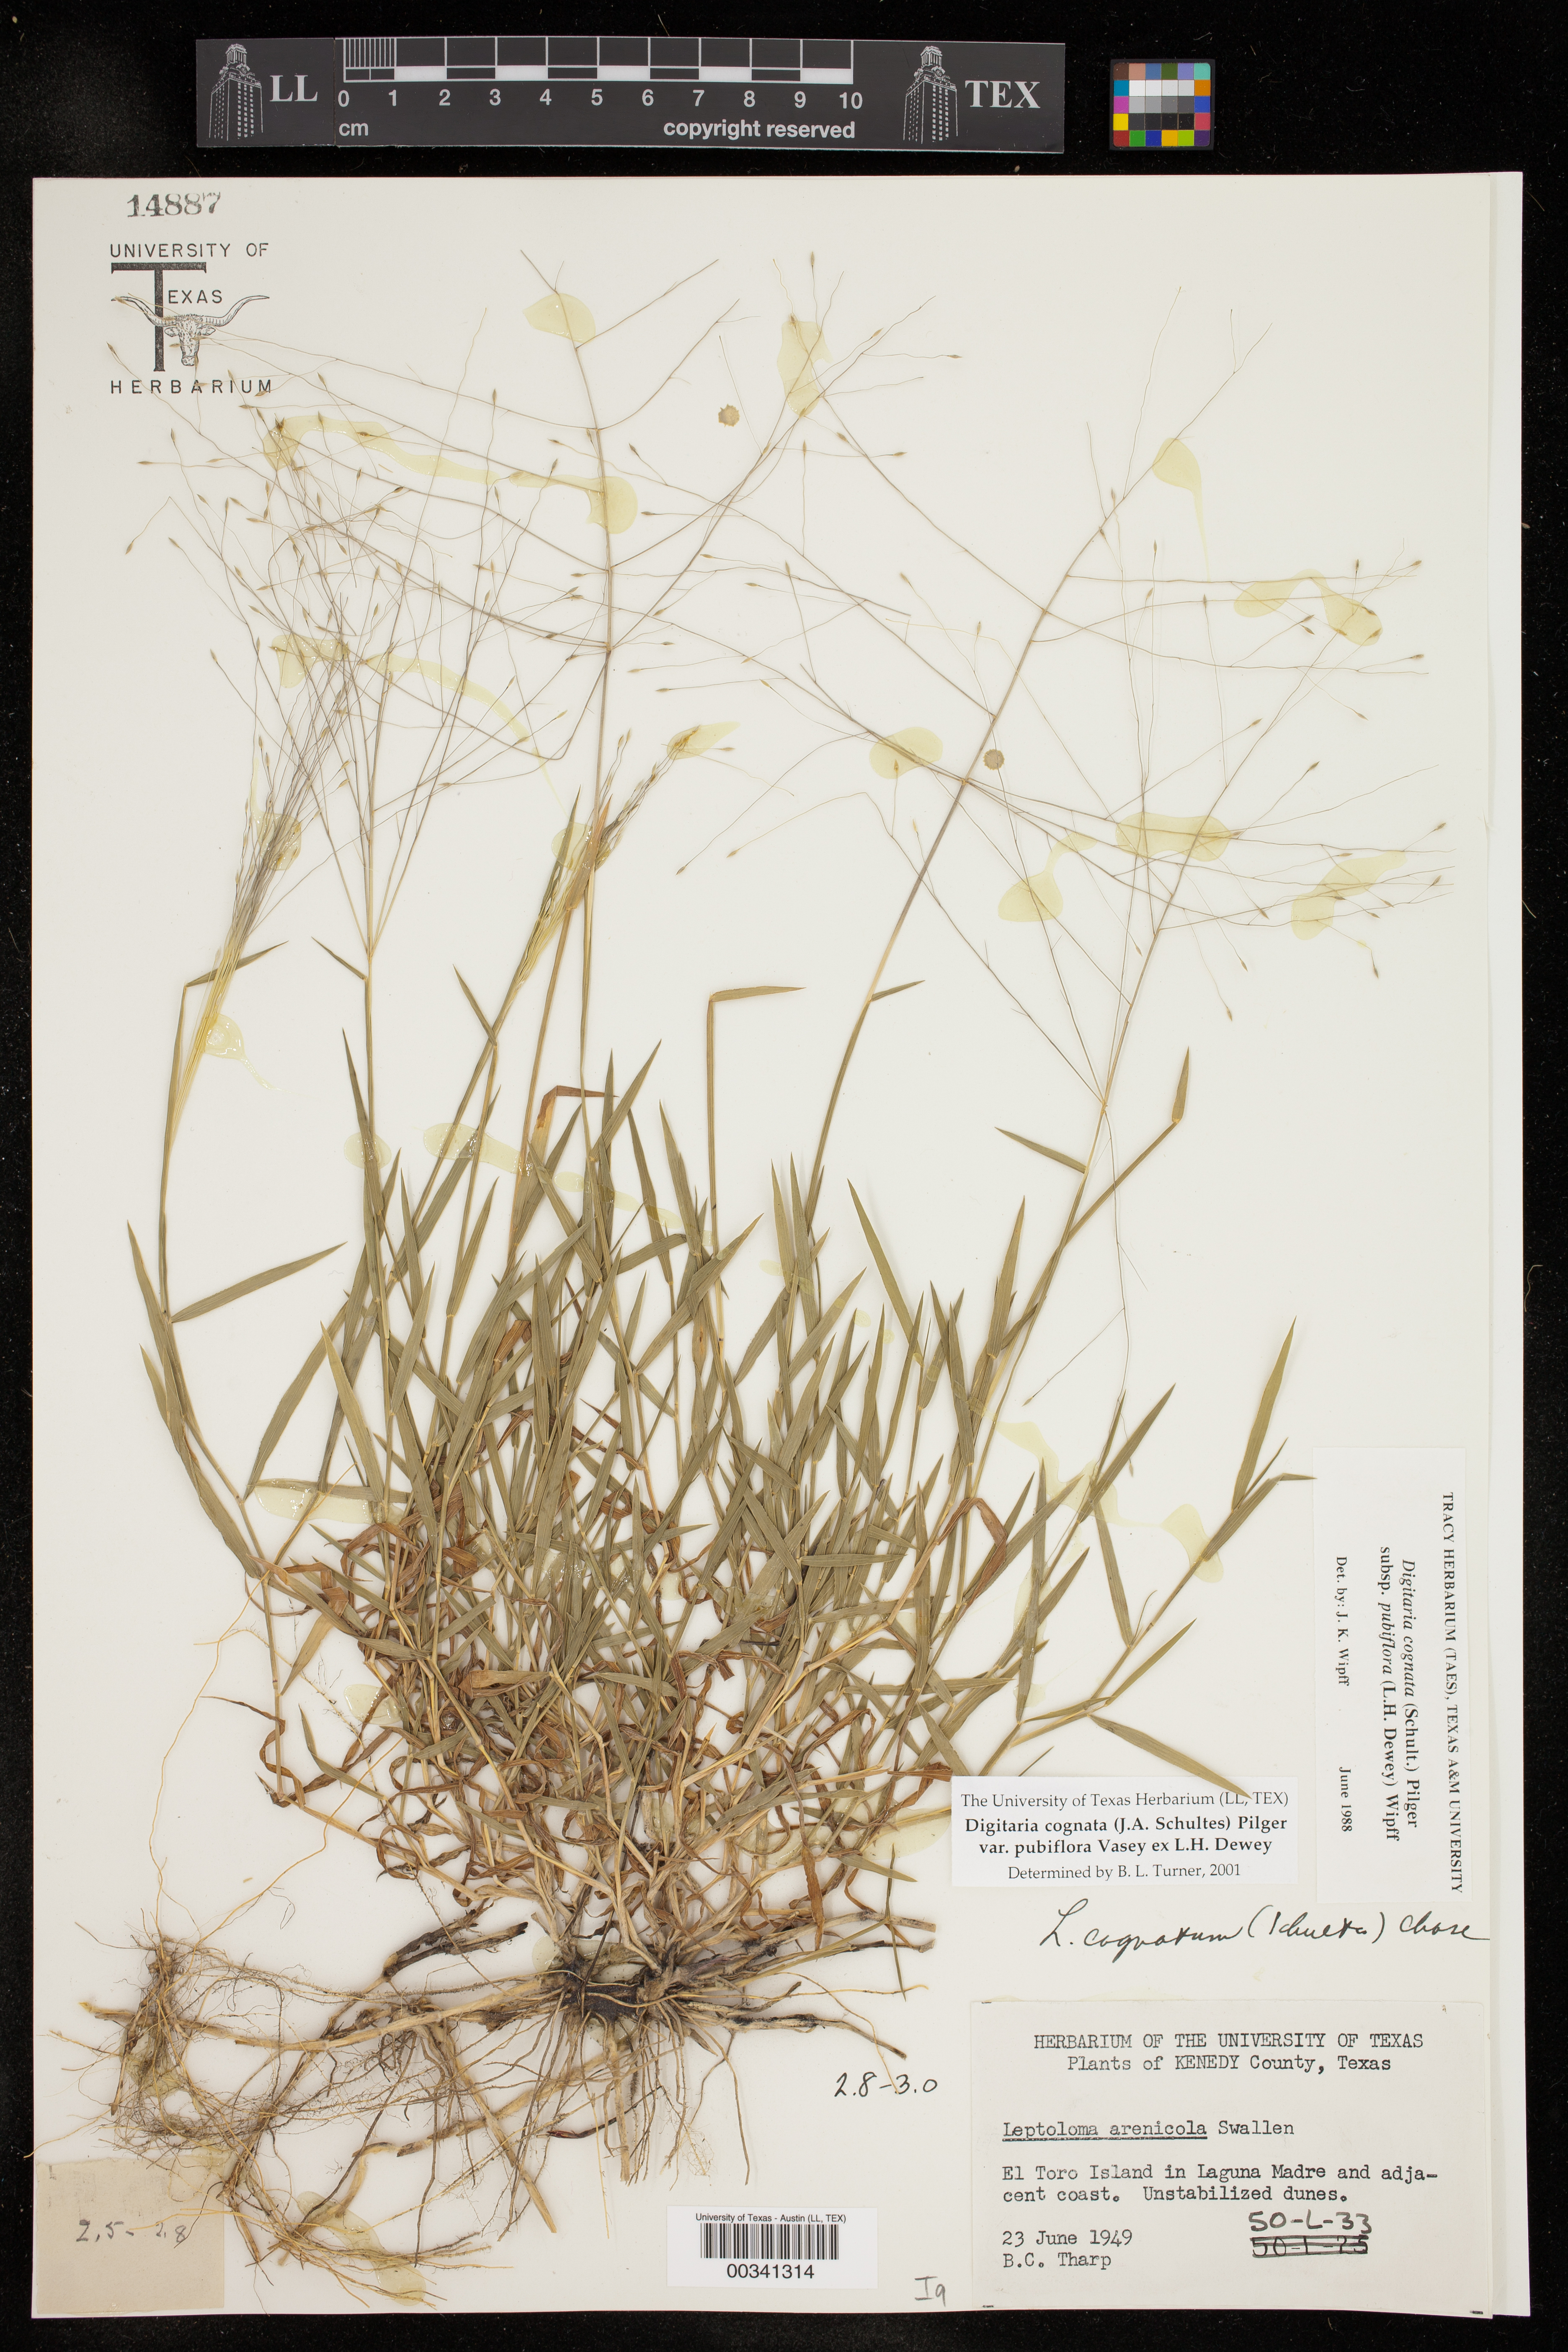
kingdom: Plantae
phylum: Tracheophyta
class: Liliopsida
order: Poales
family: Poaceae
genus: Digitaria
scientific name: Digitaria cognata
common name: Fall witchgrass
